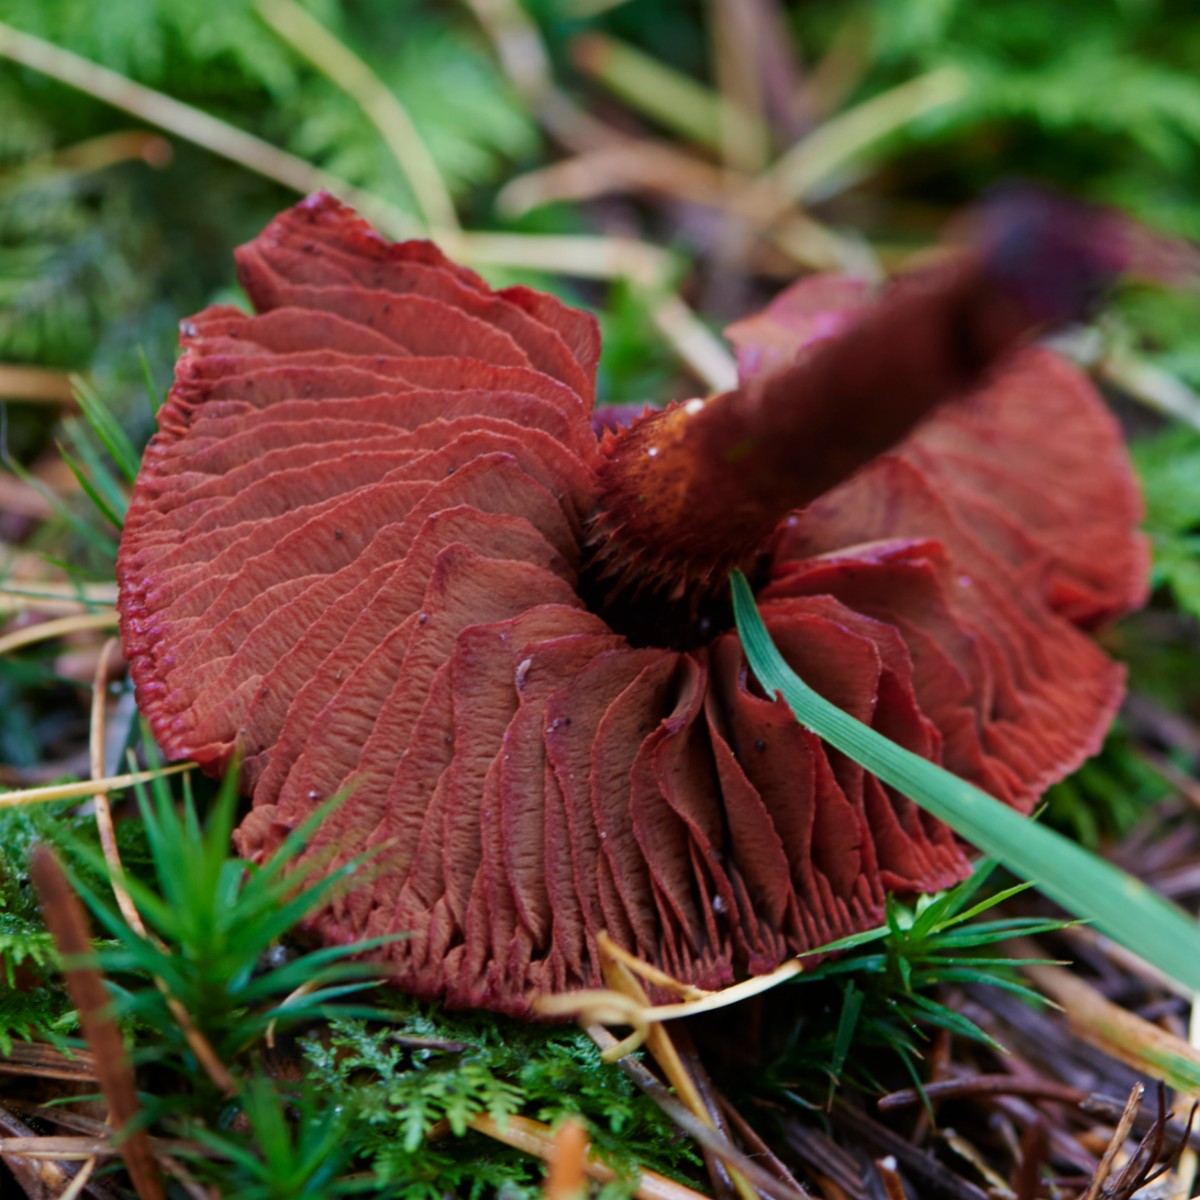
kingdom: Fungi
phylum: Basidiomycota
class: Agaricomycetes
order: Agaricales
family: Cortinariaceae
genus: Cortinarius
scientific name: Cortinarius sanguineus
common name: blodrød slørhat
